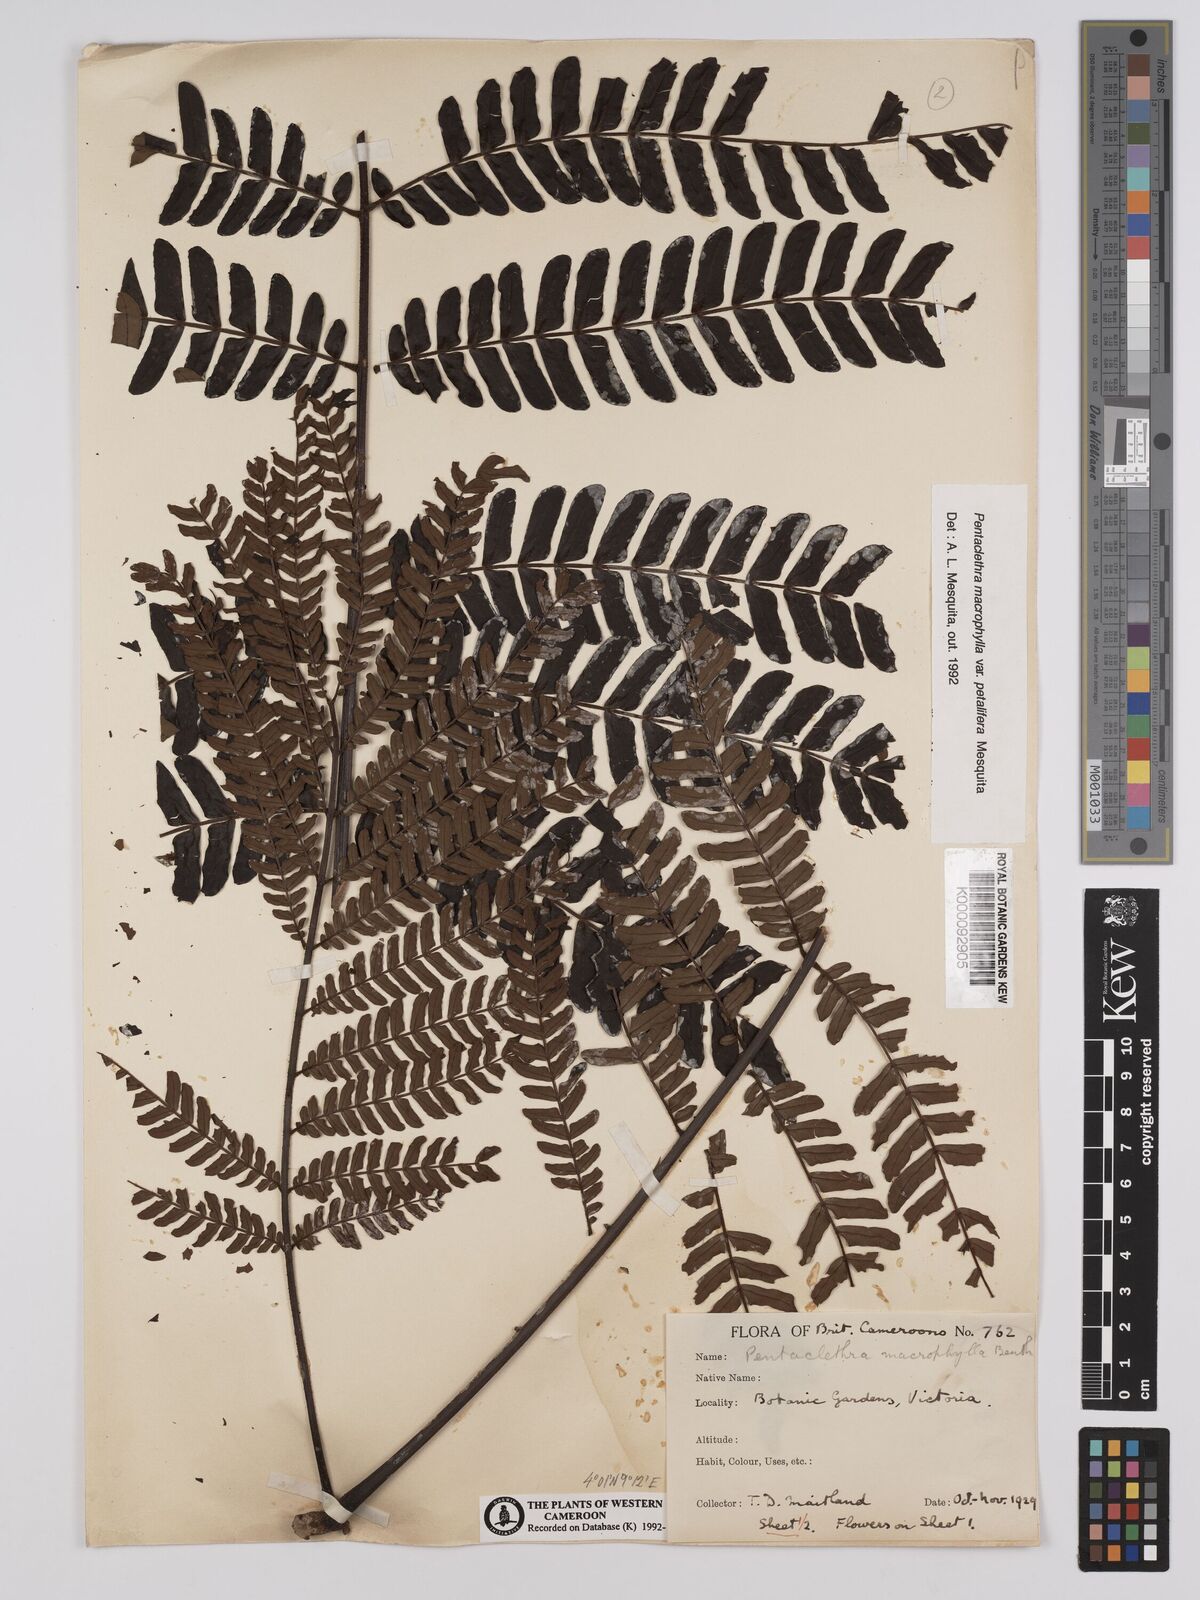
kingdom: Plantae
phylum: Tracheophyta
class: Magnoliopsida
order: Fabales
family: Fabaceae
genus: Pentaclethra
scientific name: Pentaclethra macrophylla
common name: African oil bean
